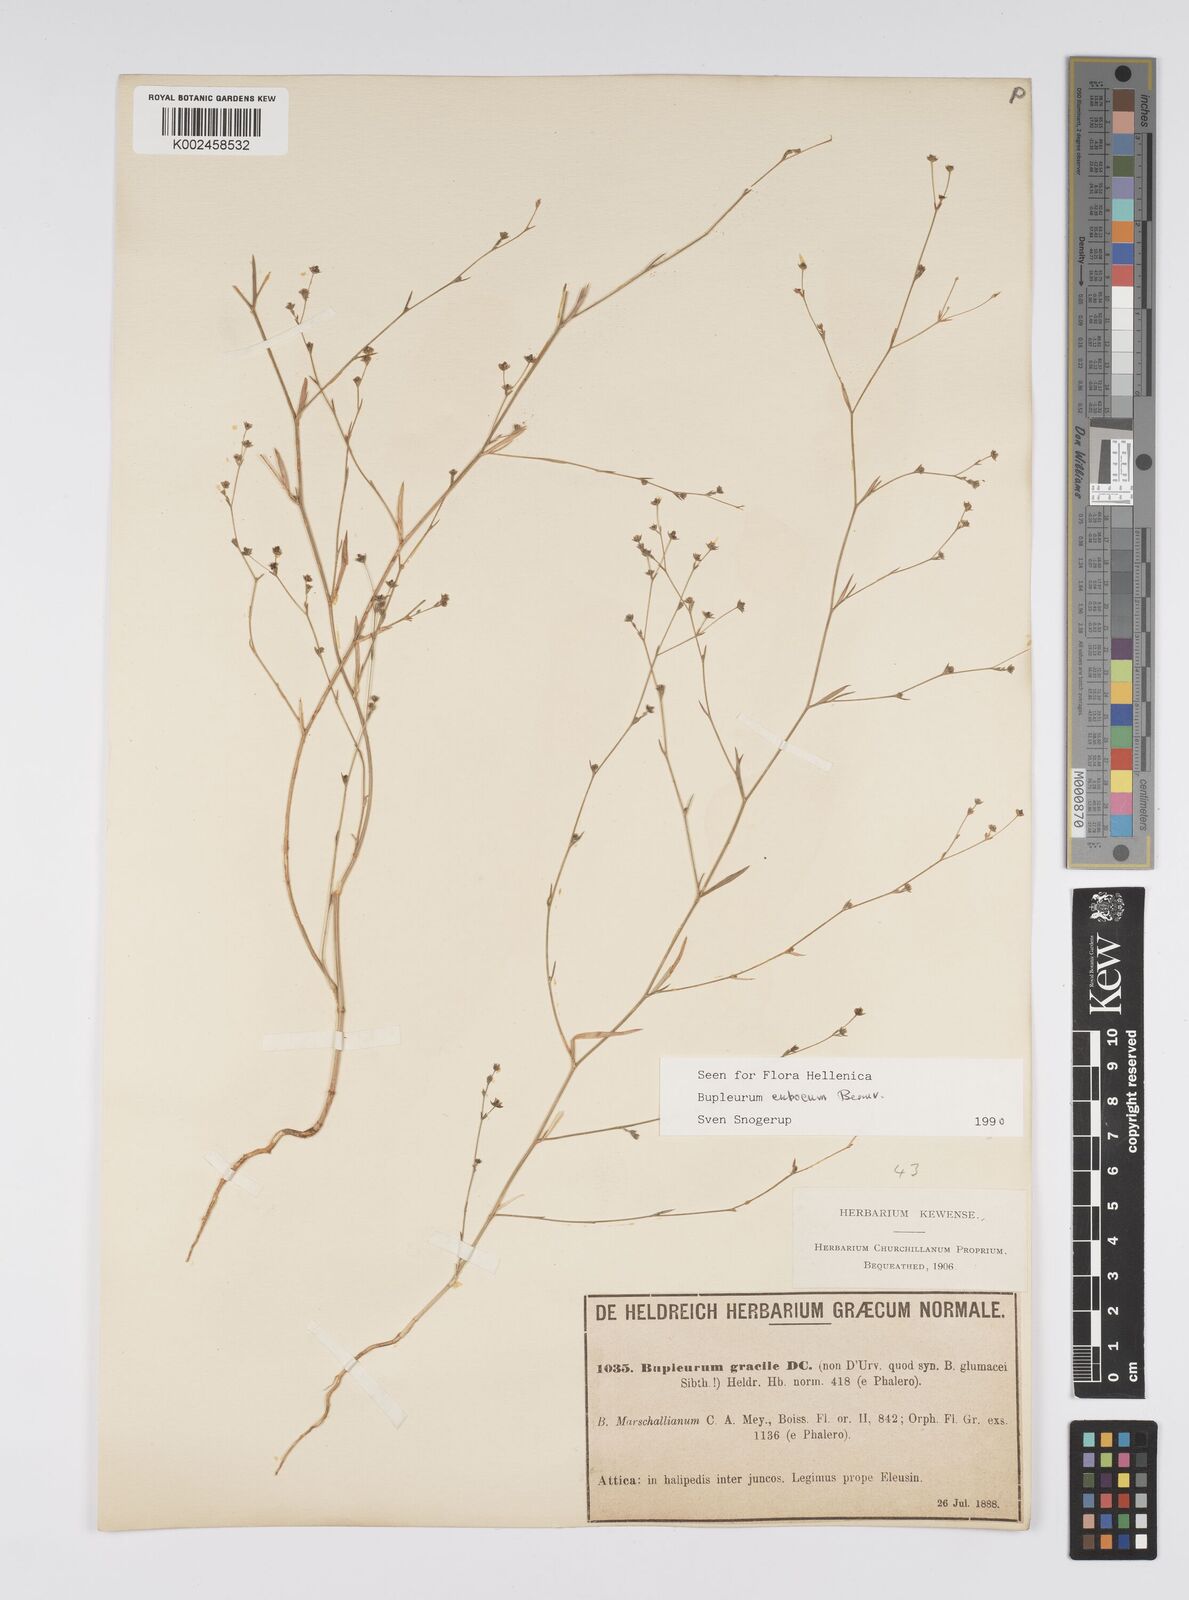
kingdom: Plantae
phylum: Tracheophyta
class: Magnoliopsida
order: Apiales
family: Apiaceae
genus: Bupleurum
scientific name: Bupleurum tenuissimum
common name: Slender hare's-ear
